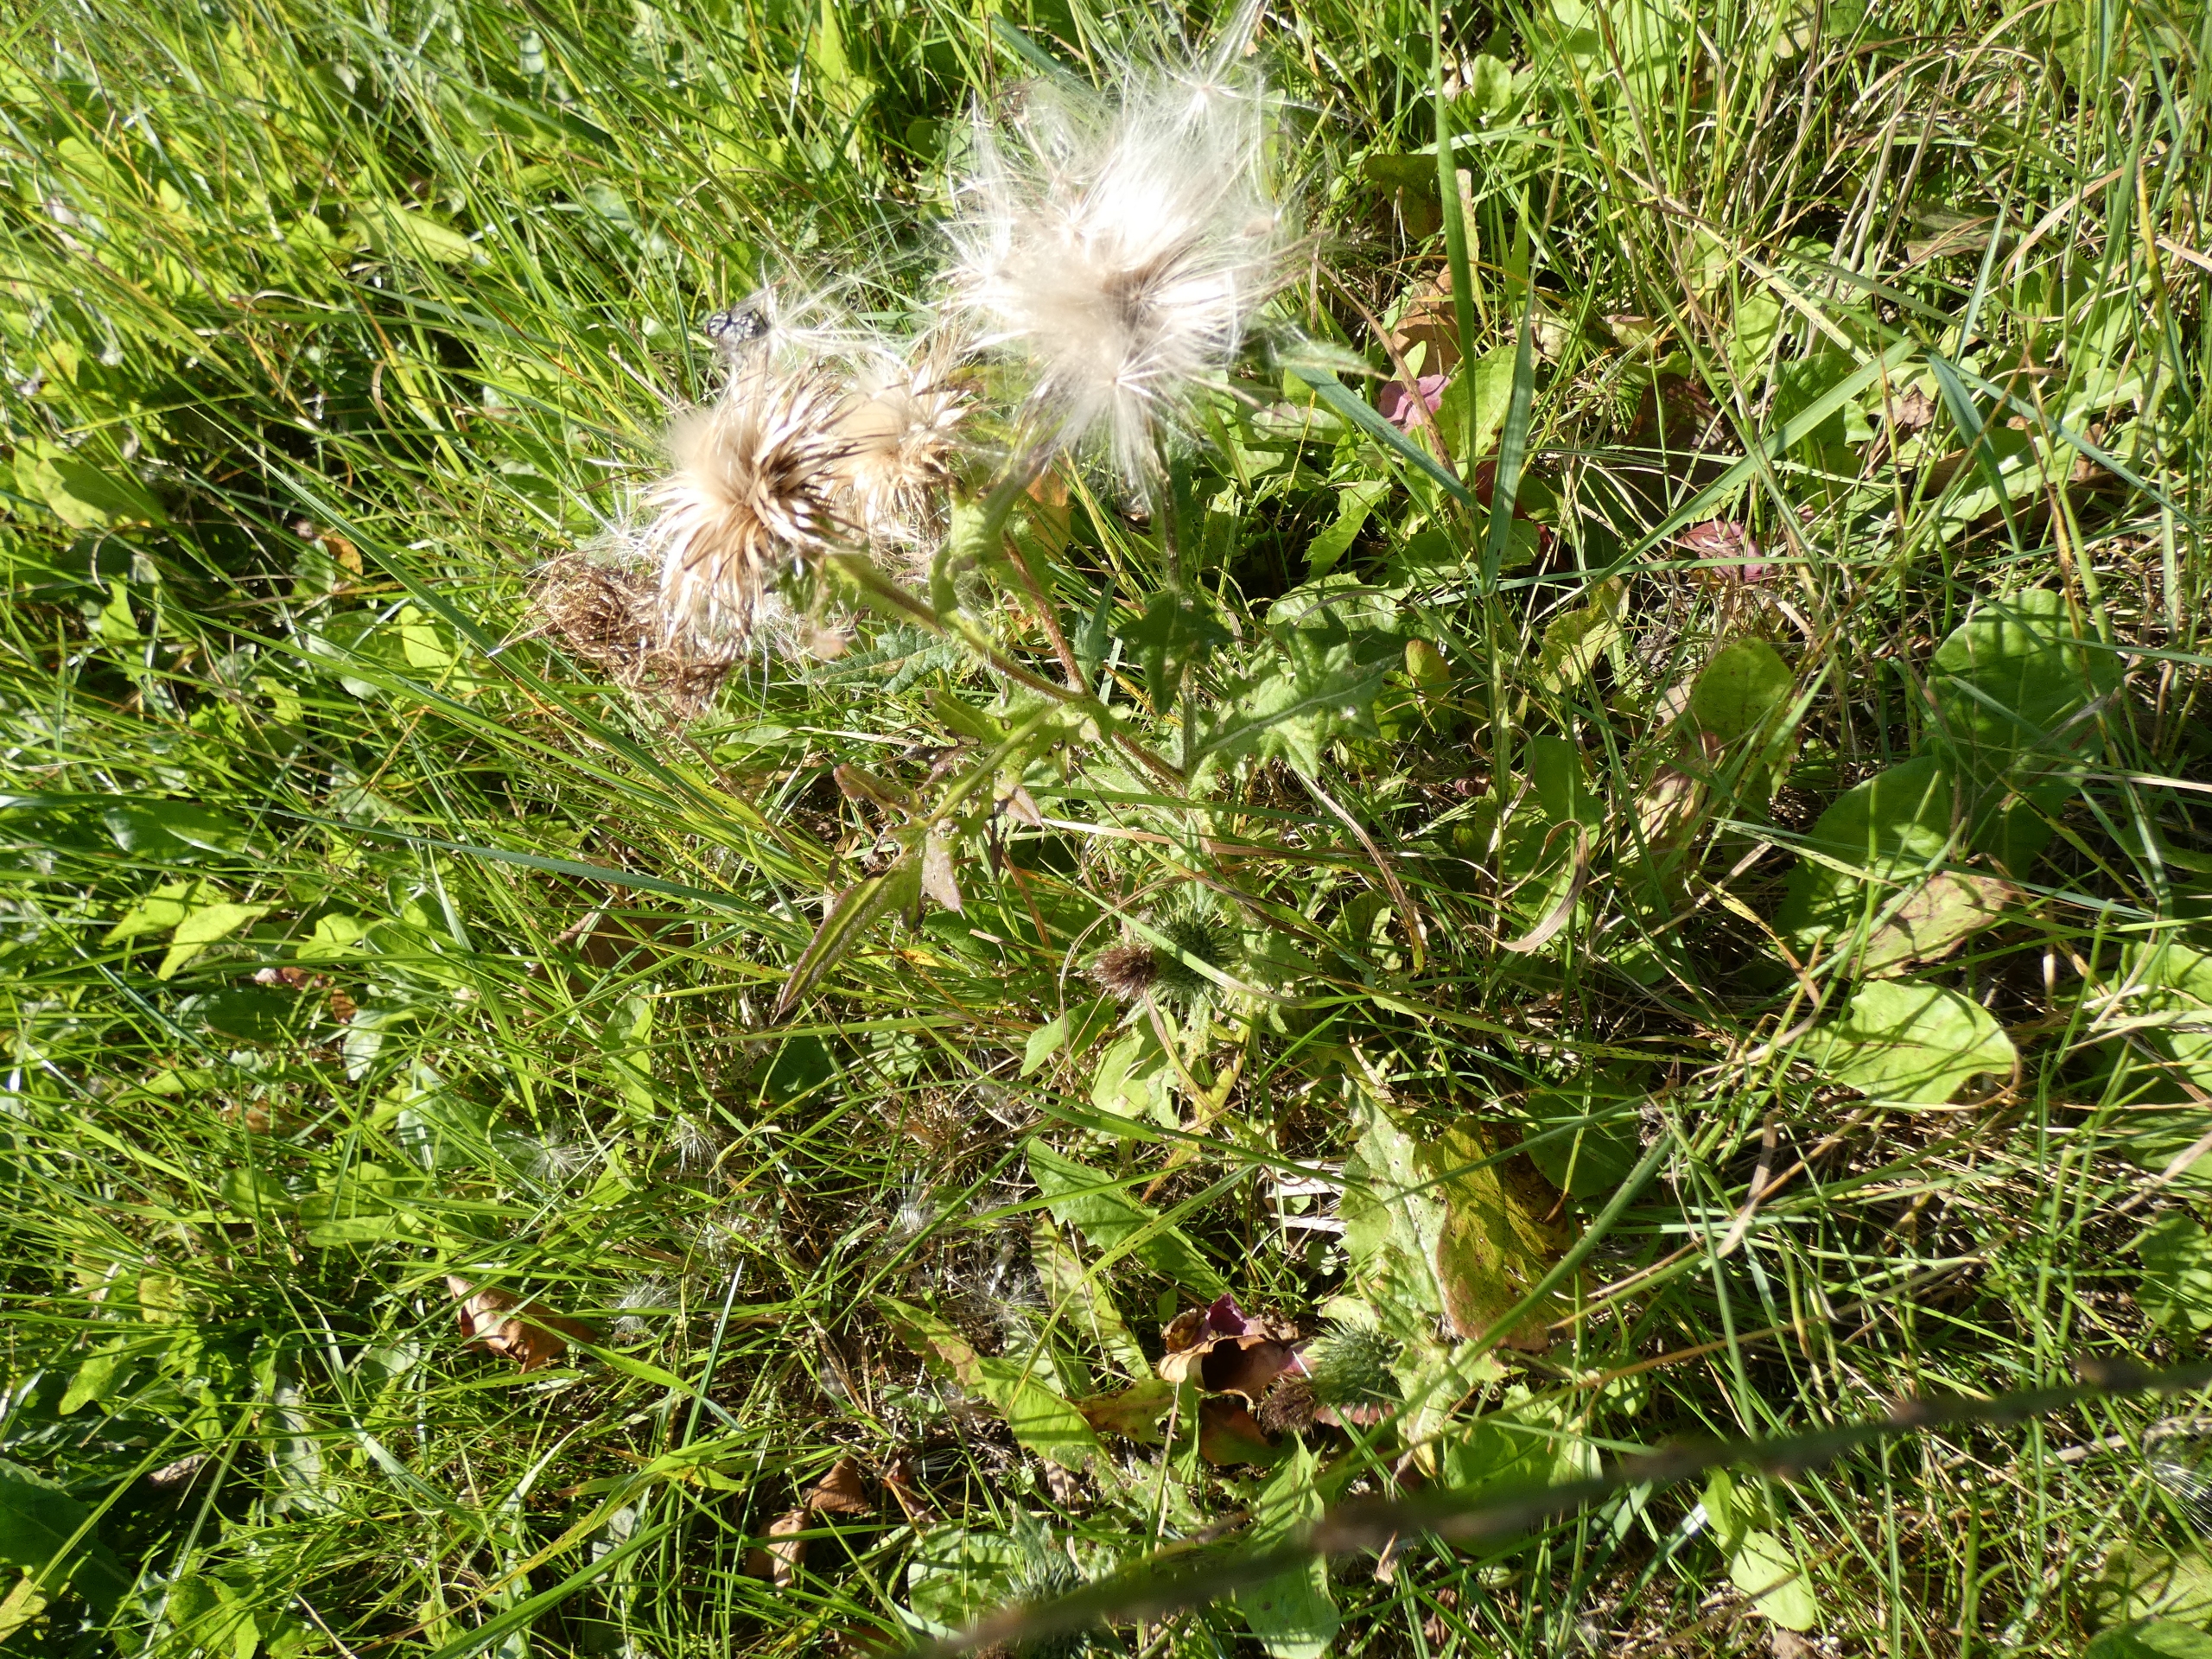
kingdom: Plantae
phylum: Tracheophyta
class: Magnoliopsida
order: Asterales
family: Asteraceae
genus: Cirsium
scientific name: Cirsium vulgare
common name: Horse-tidsel
